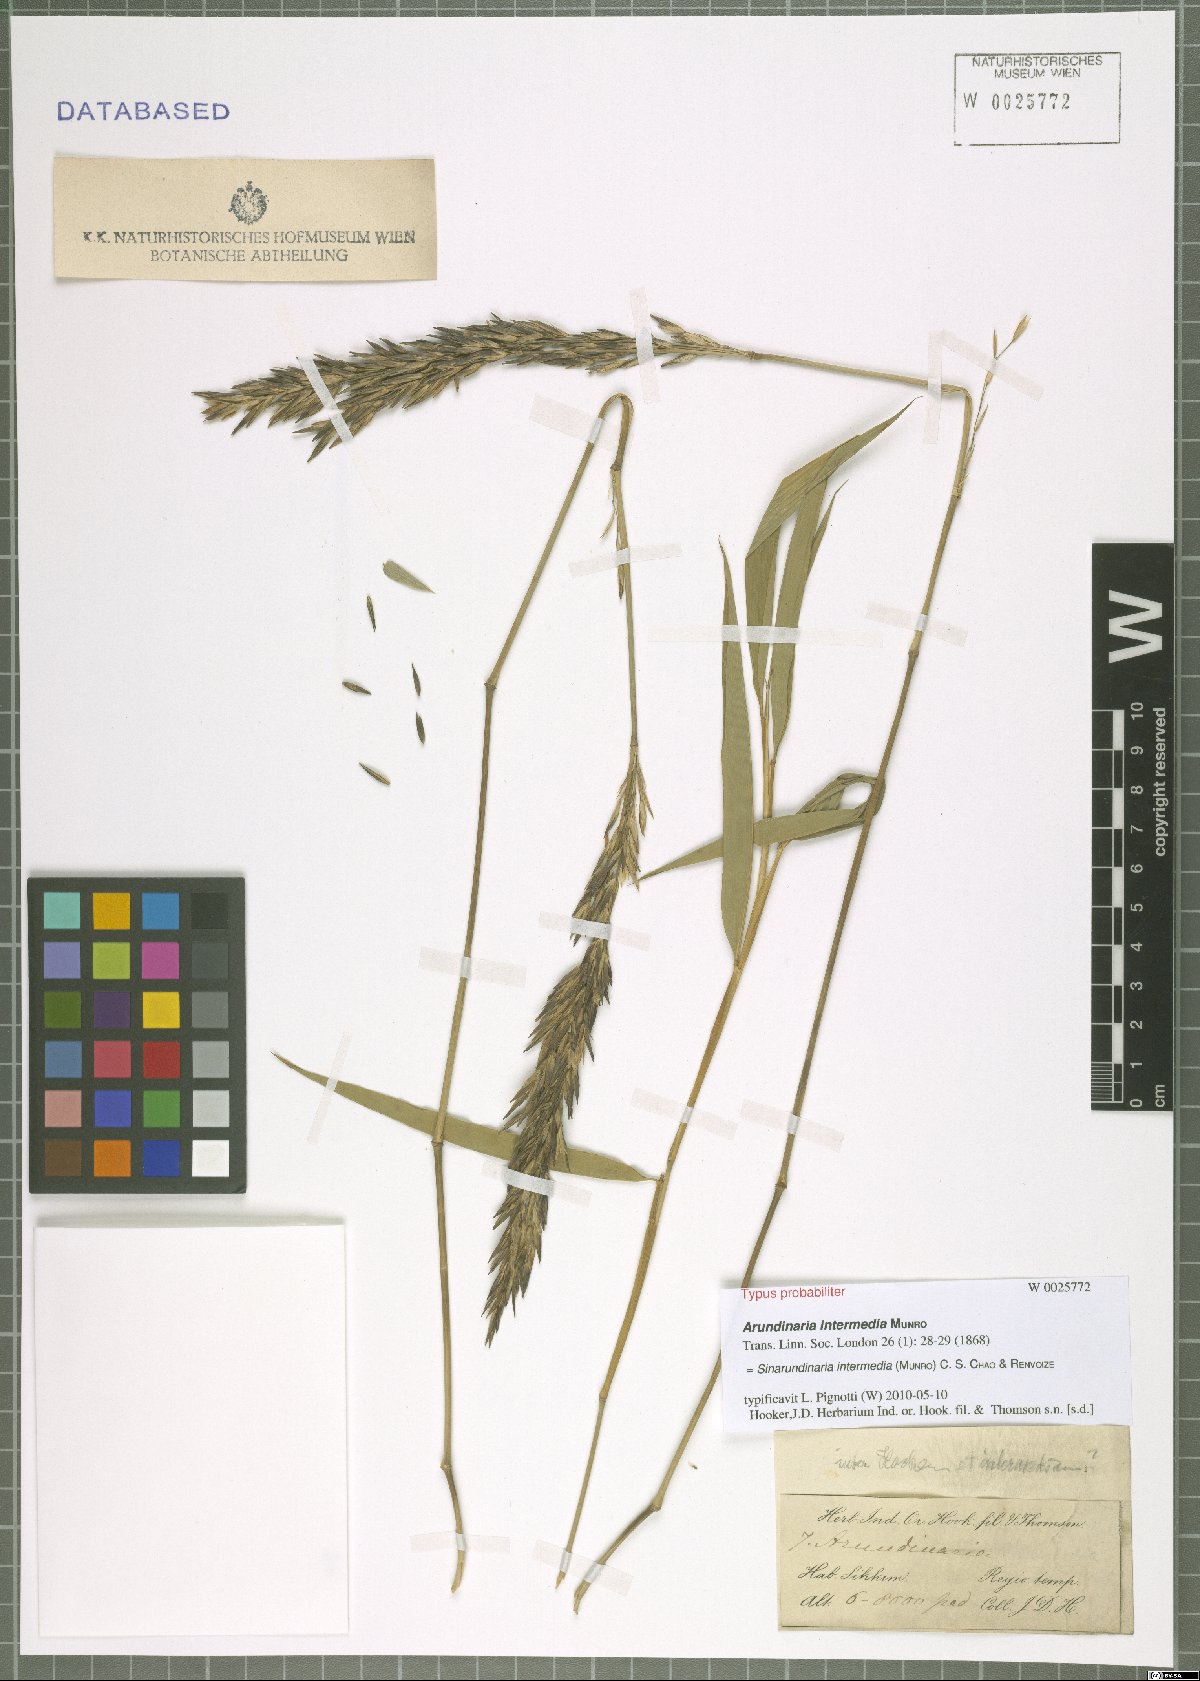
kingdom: Plantae
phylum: Tracheophyta
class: Liliopsida
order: Poales
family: Poaceae
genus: Drepanostachyum
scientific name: Drepanostachyum intermedium
